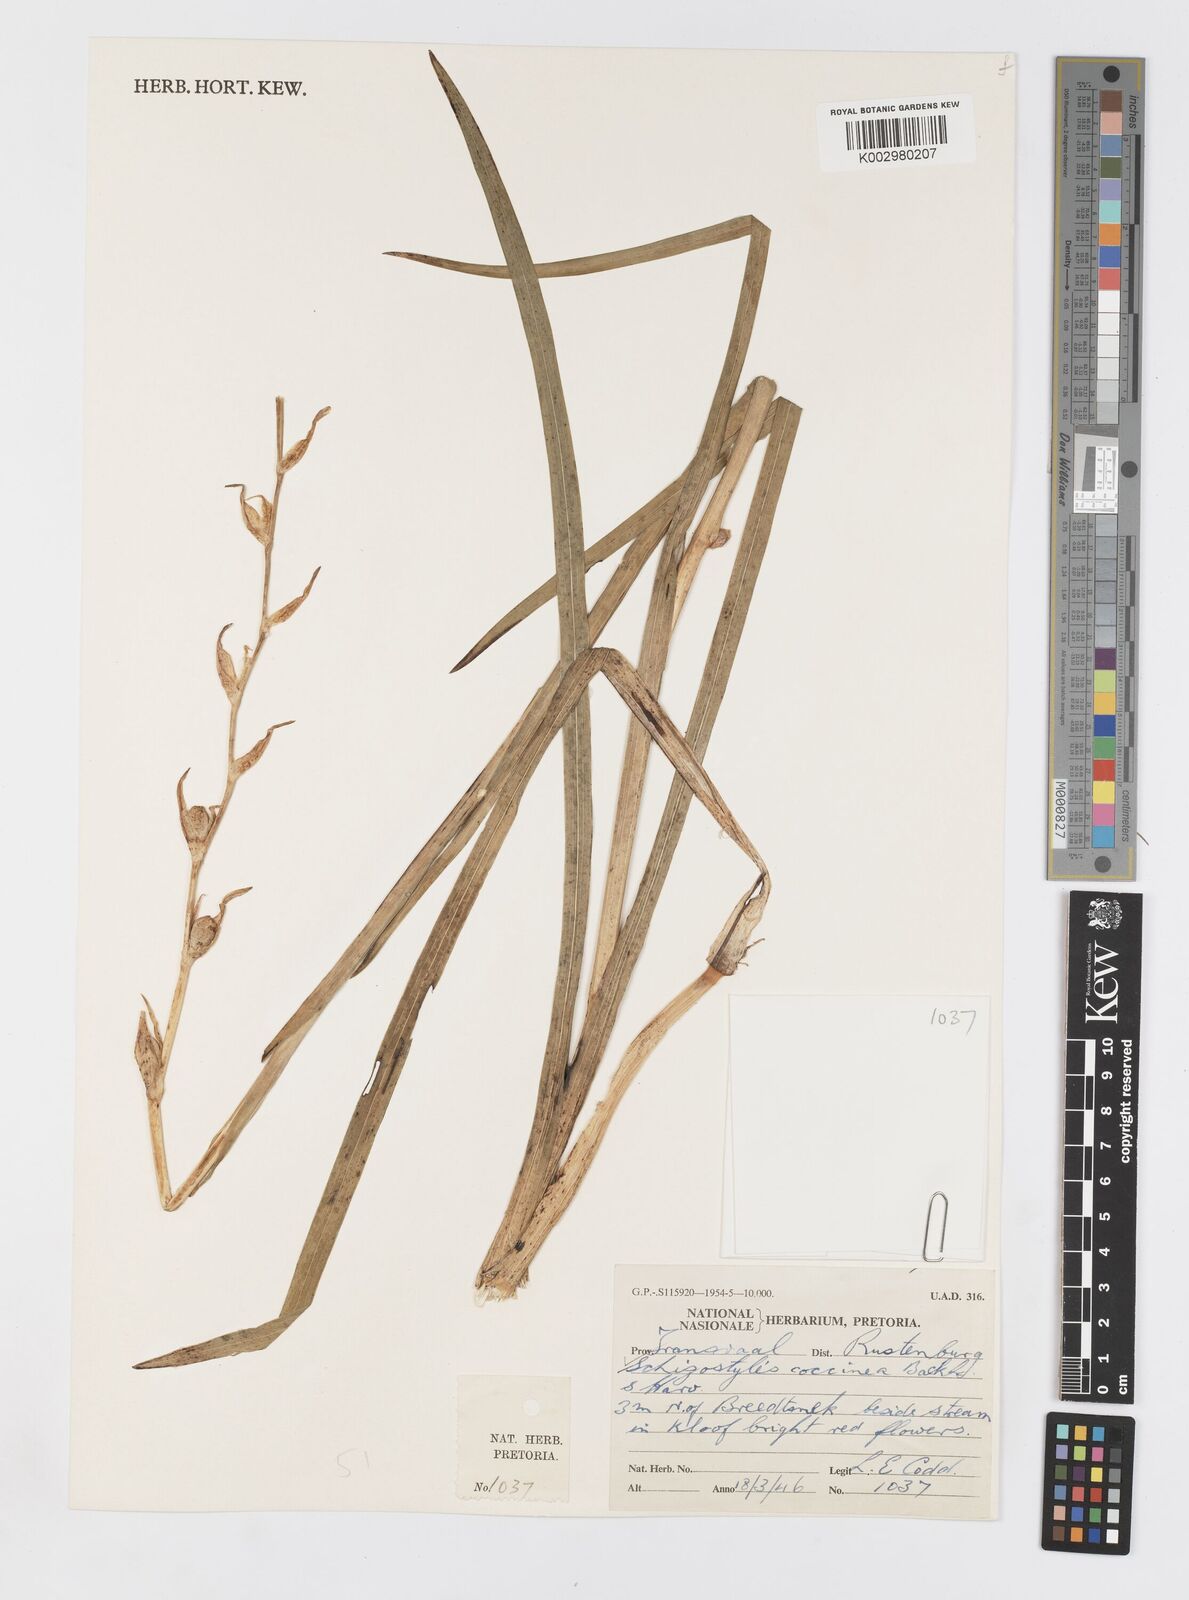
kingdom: Plantae
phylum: Tracheophyta
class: Liliopsida
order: Asparagales
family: Iridaceae
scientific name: Iridaceae
